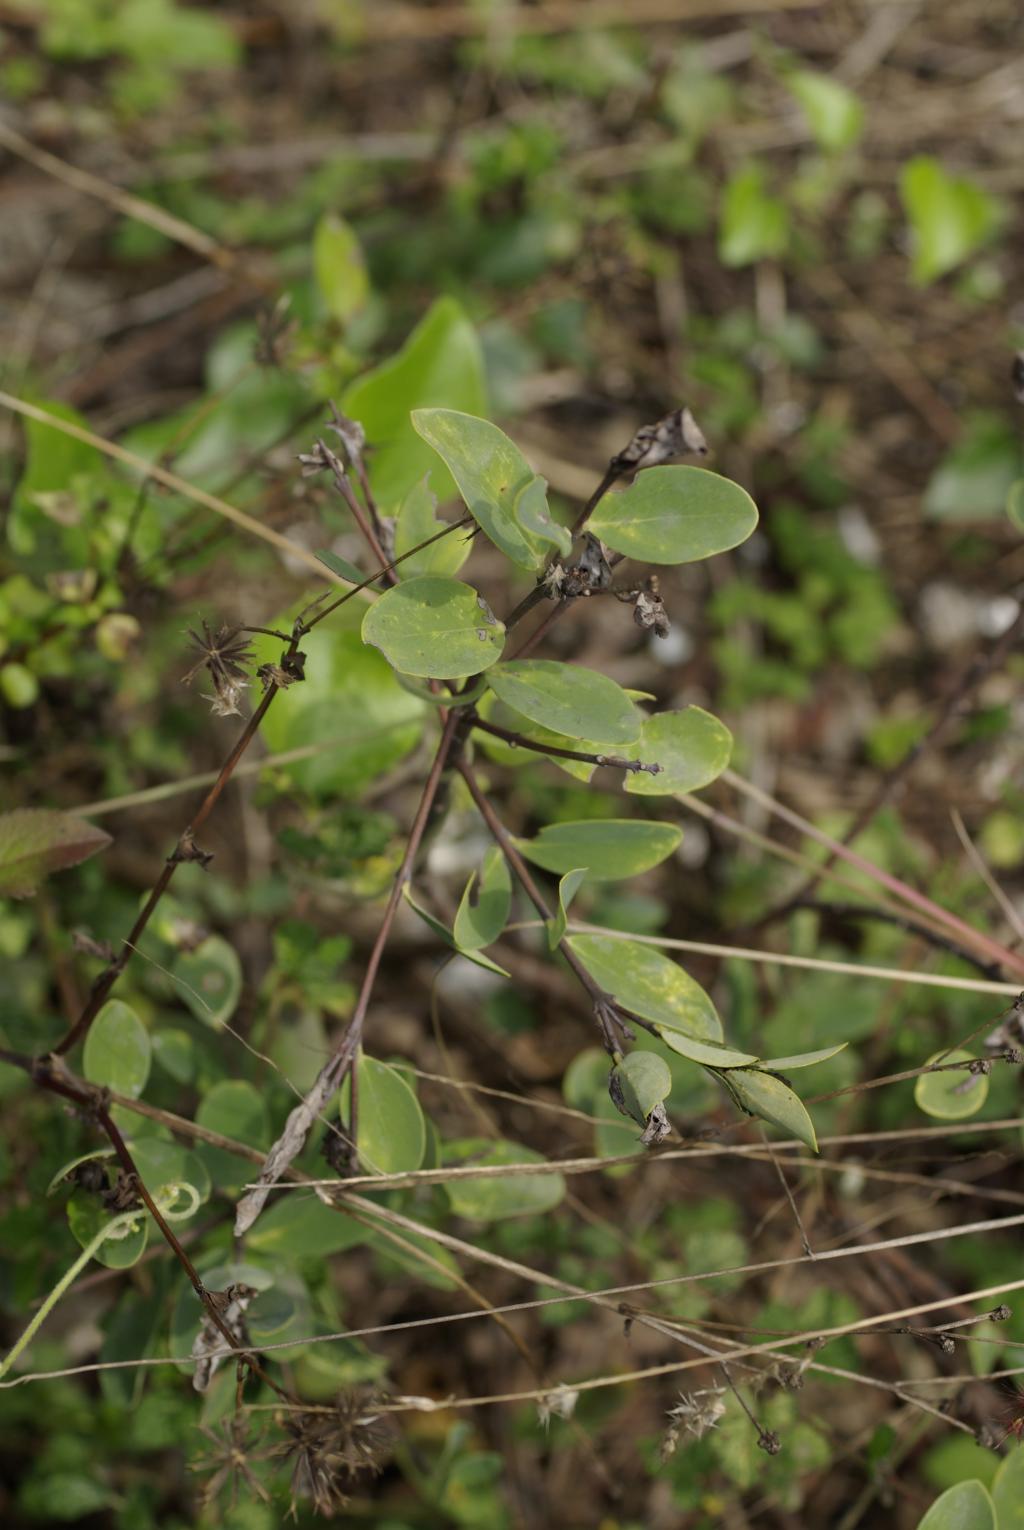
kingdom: Plantae
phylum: Tracheophyta
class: Magnoliopsida
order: Malvales
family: Thymelaeaceae
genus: Wikstroemia
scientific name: Wikstroemia indica
